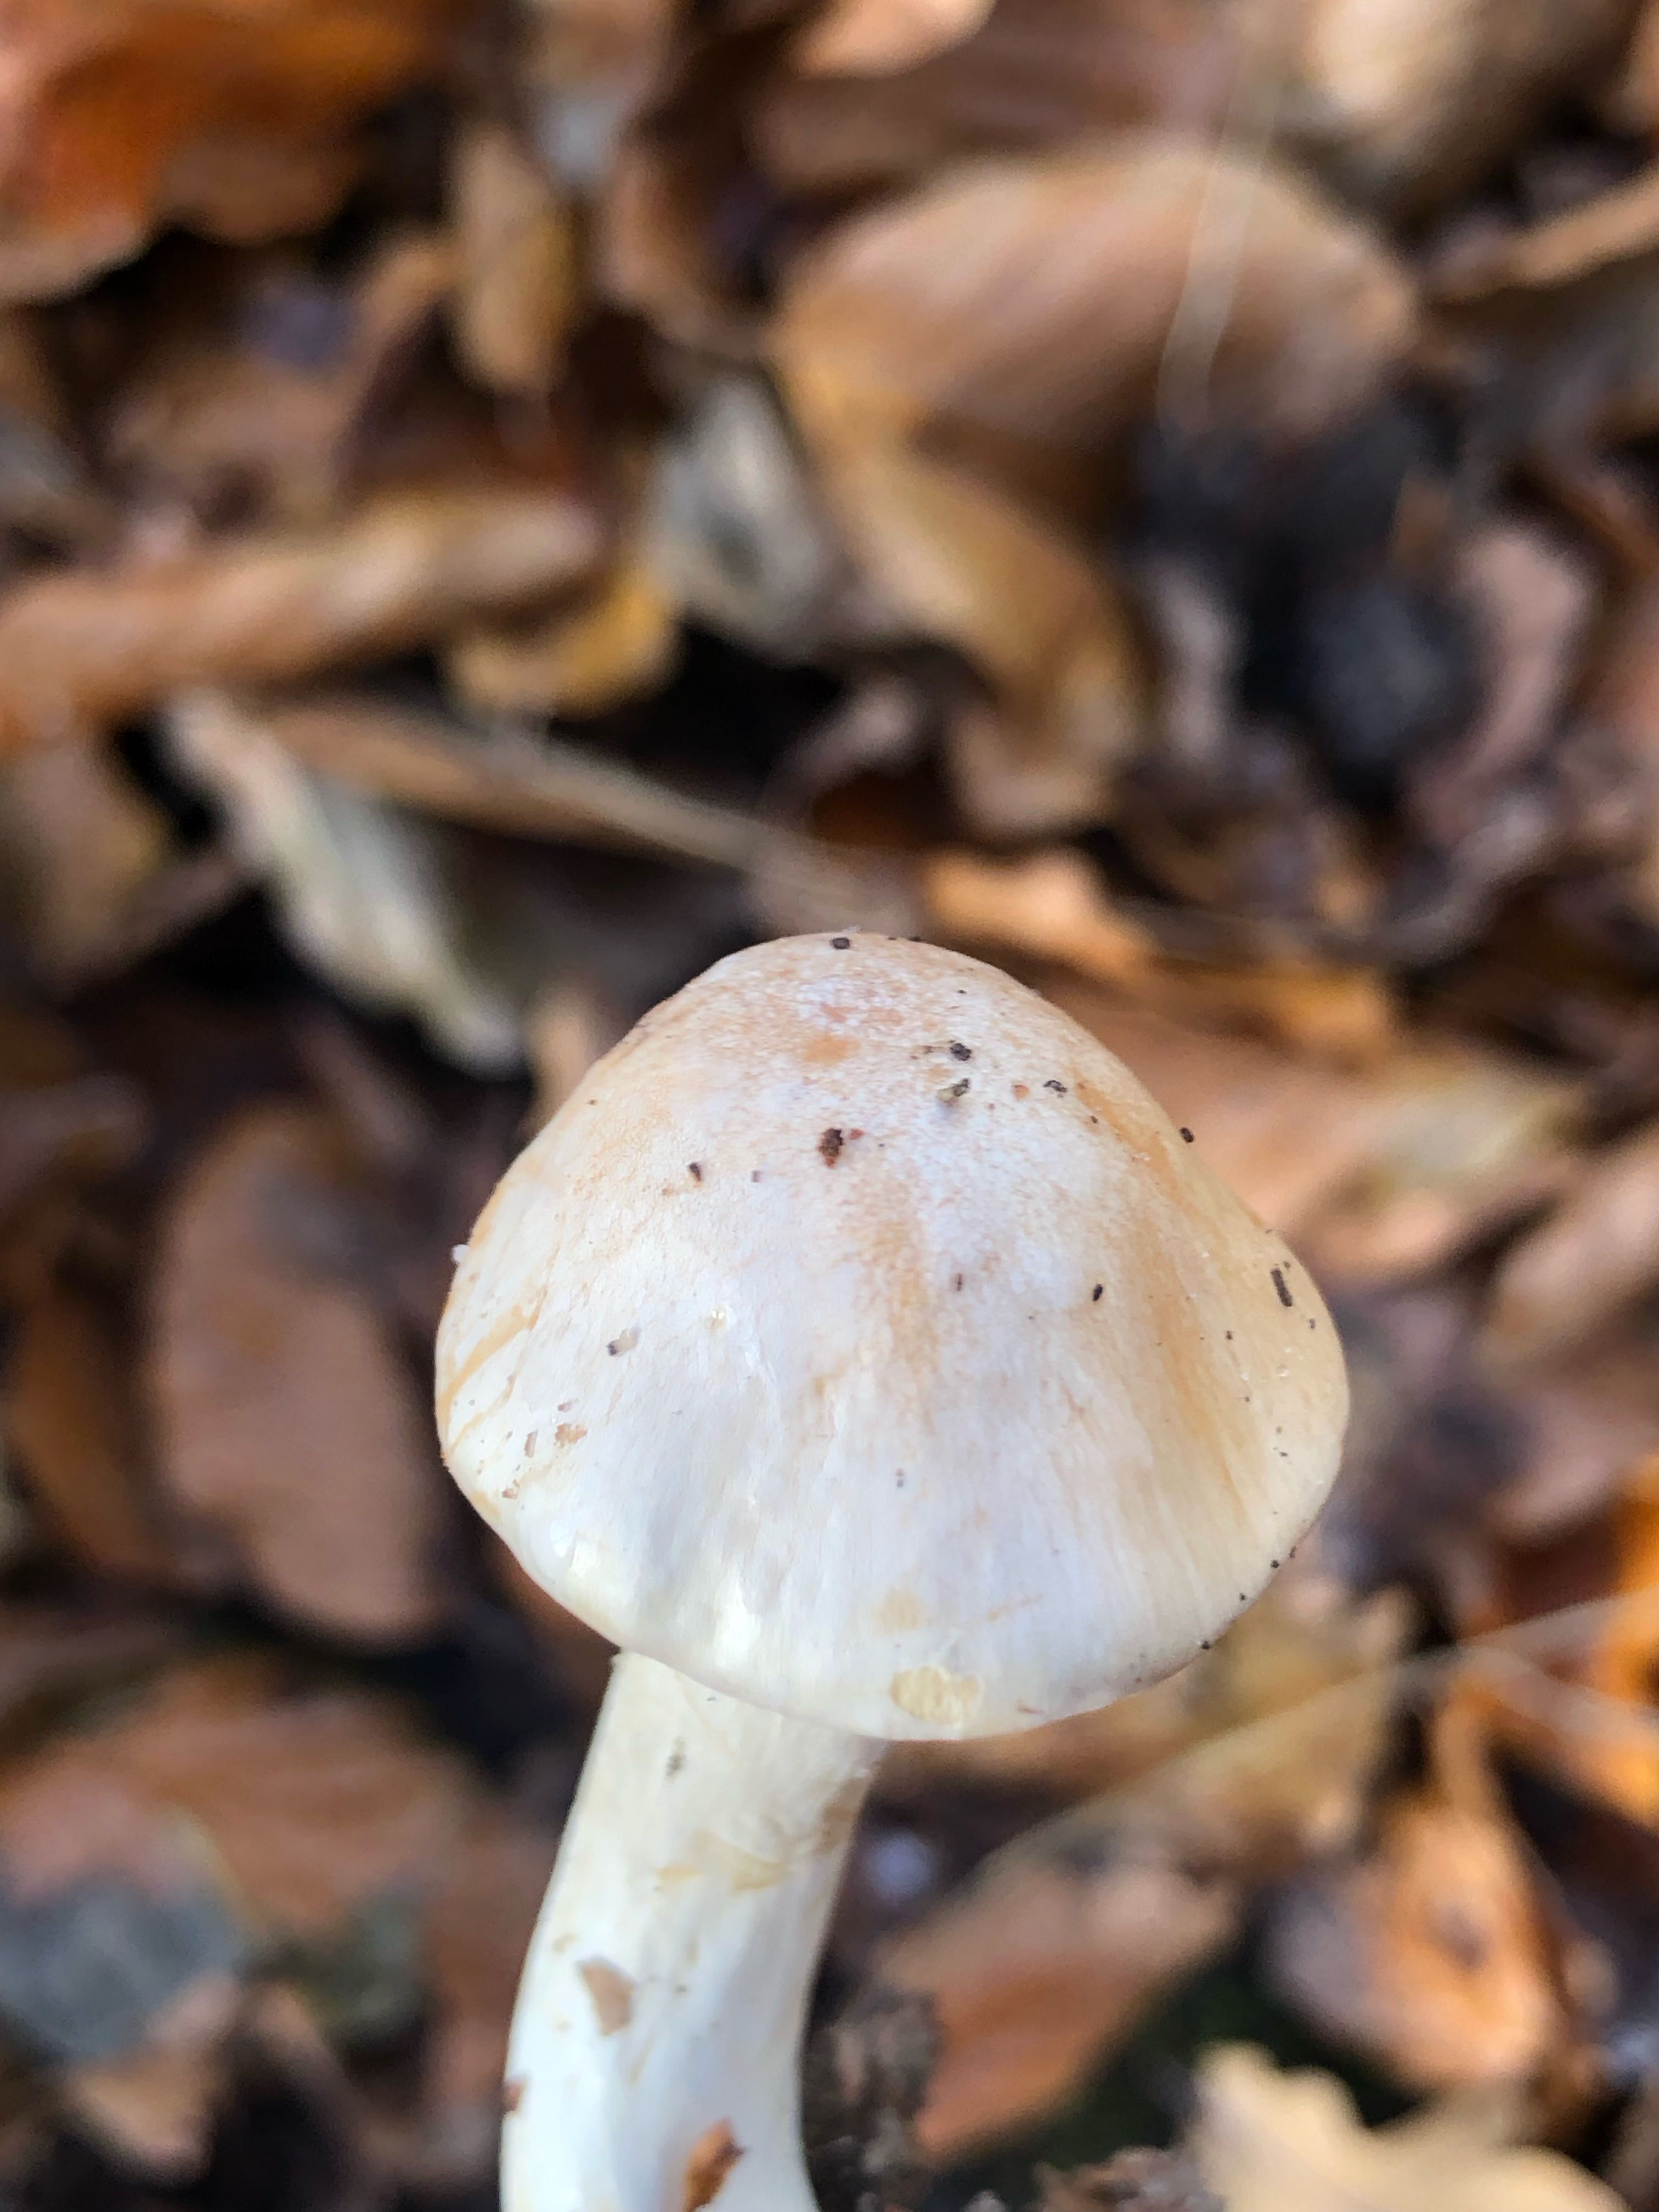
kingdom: Fungi
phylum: Basidiomycota
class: Agaricomycetes
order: Agaricales
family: Cortinariaceae
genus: Thaxterogaster
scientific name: Thaxterogaster barbatus
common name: elfenbens-slørhat
